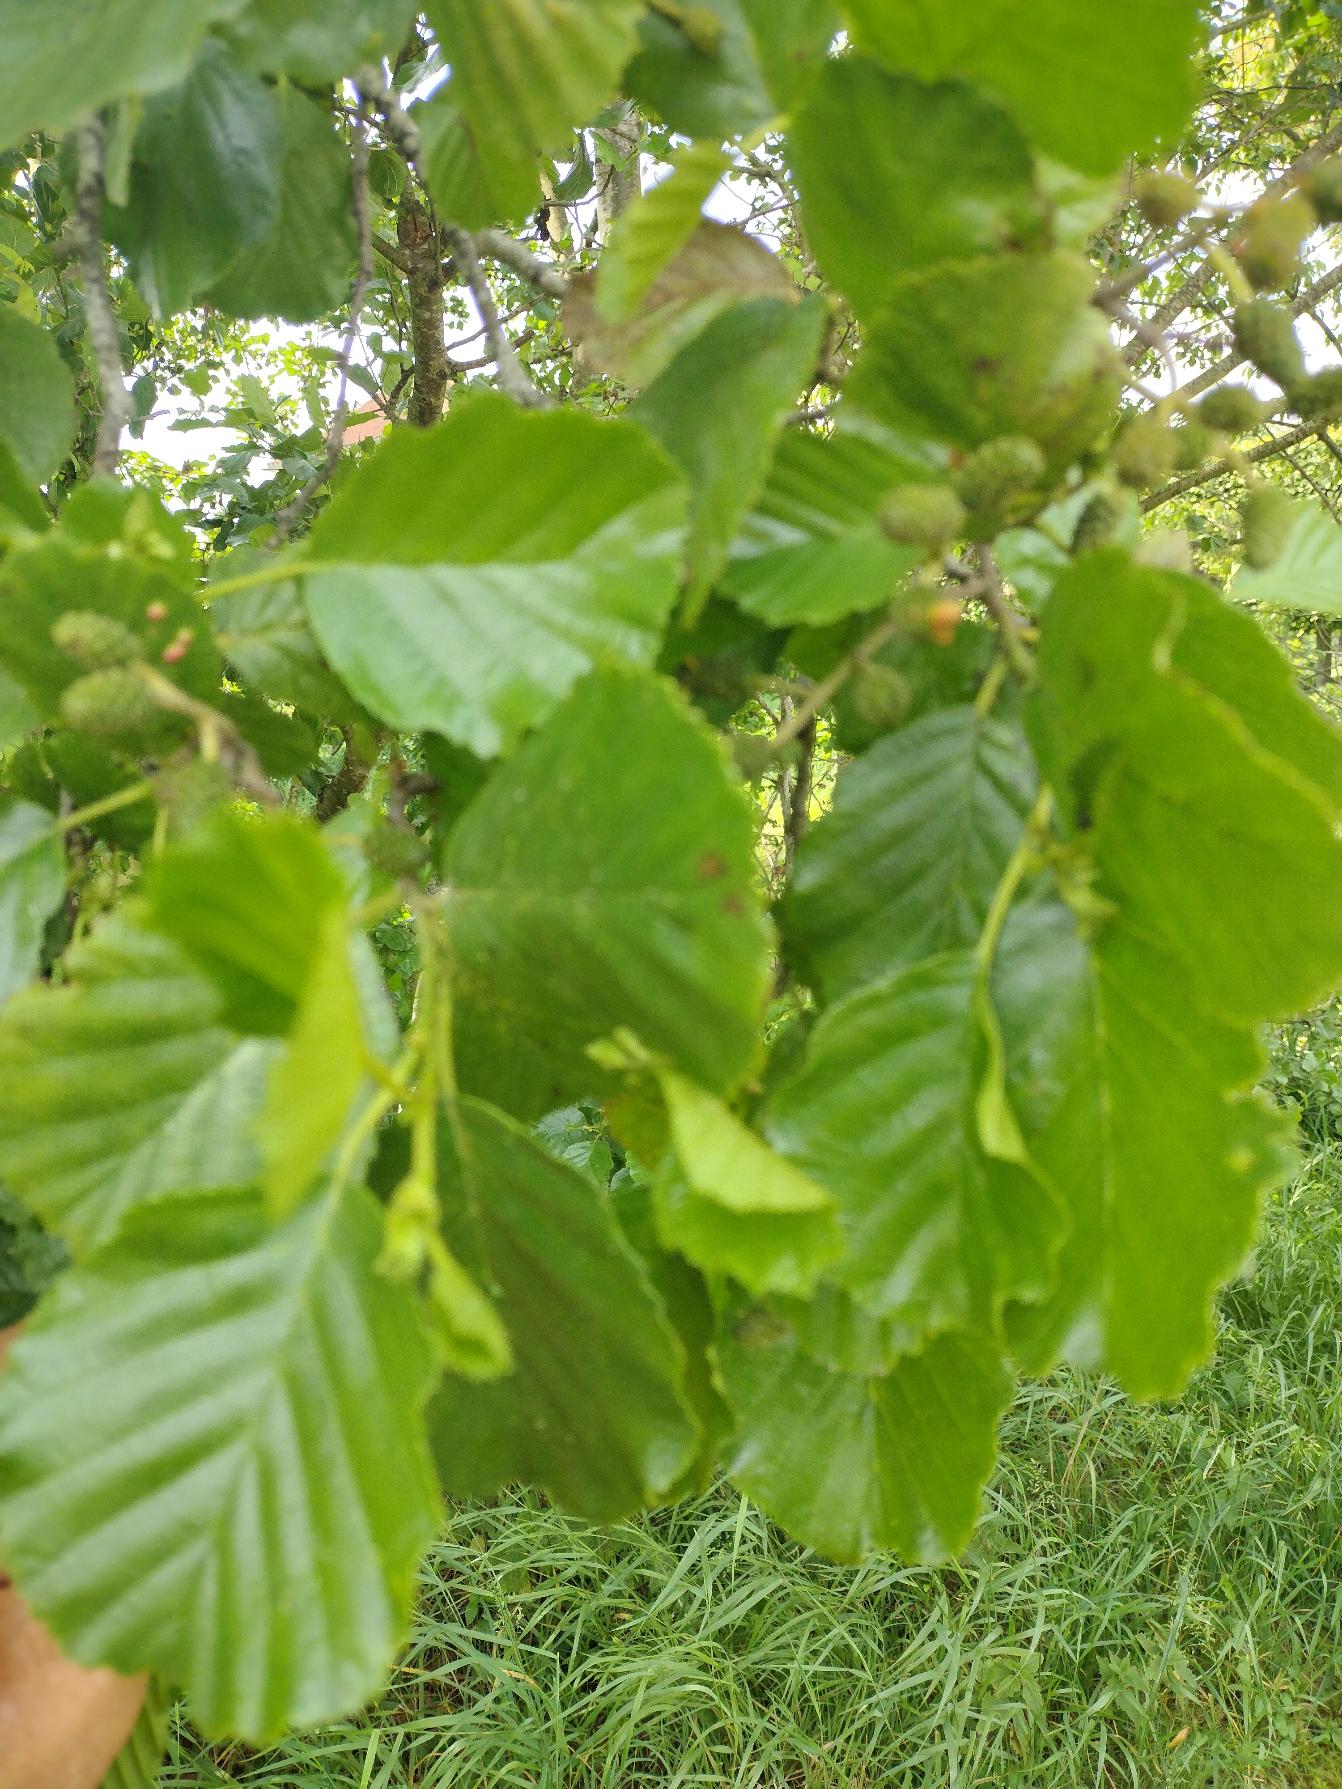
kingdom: Plantae
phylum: Tracheophyta
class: Magnoliopsida
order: Fagales
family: Betulaceae
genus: Alnus
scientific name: Alnus glutinosa
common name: Rød-el
